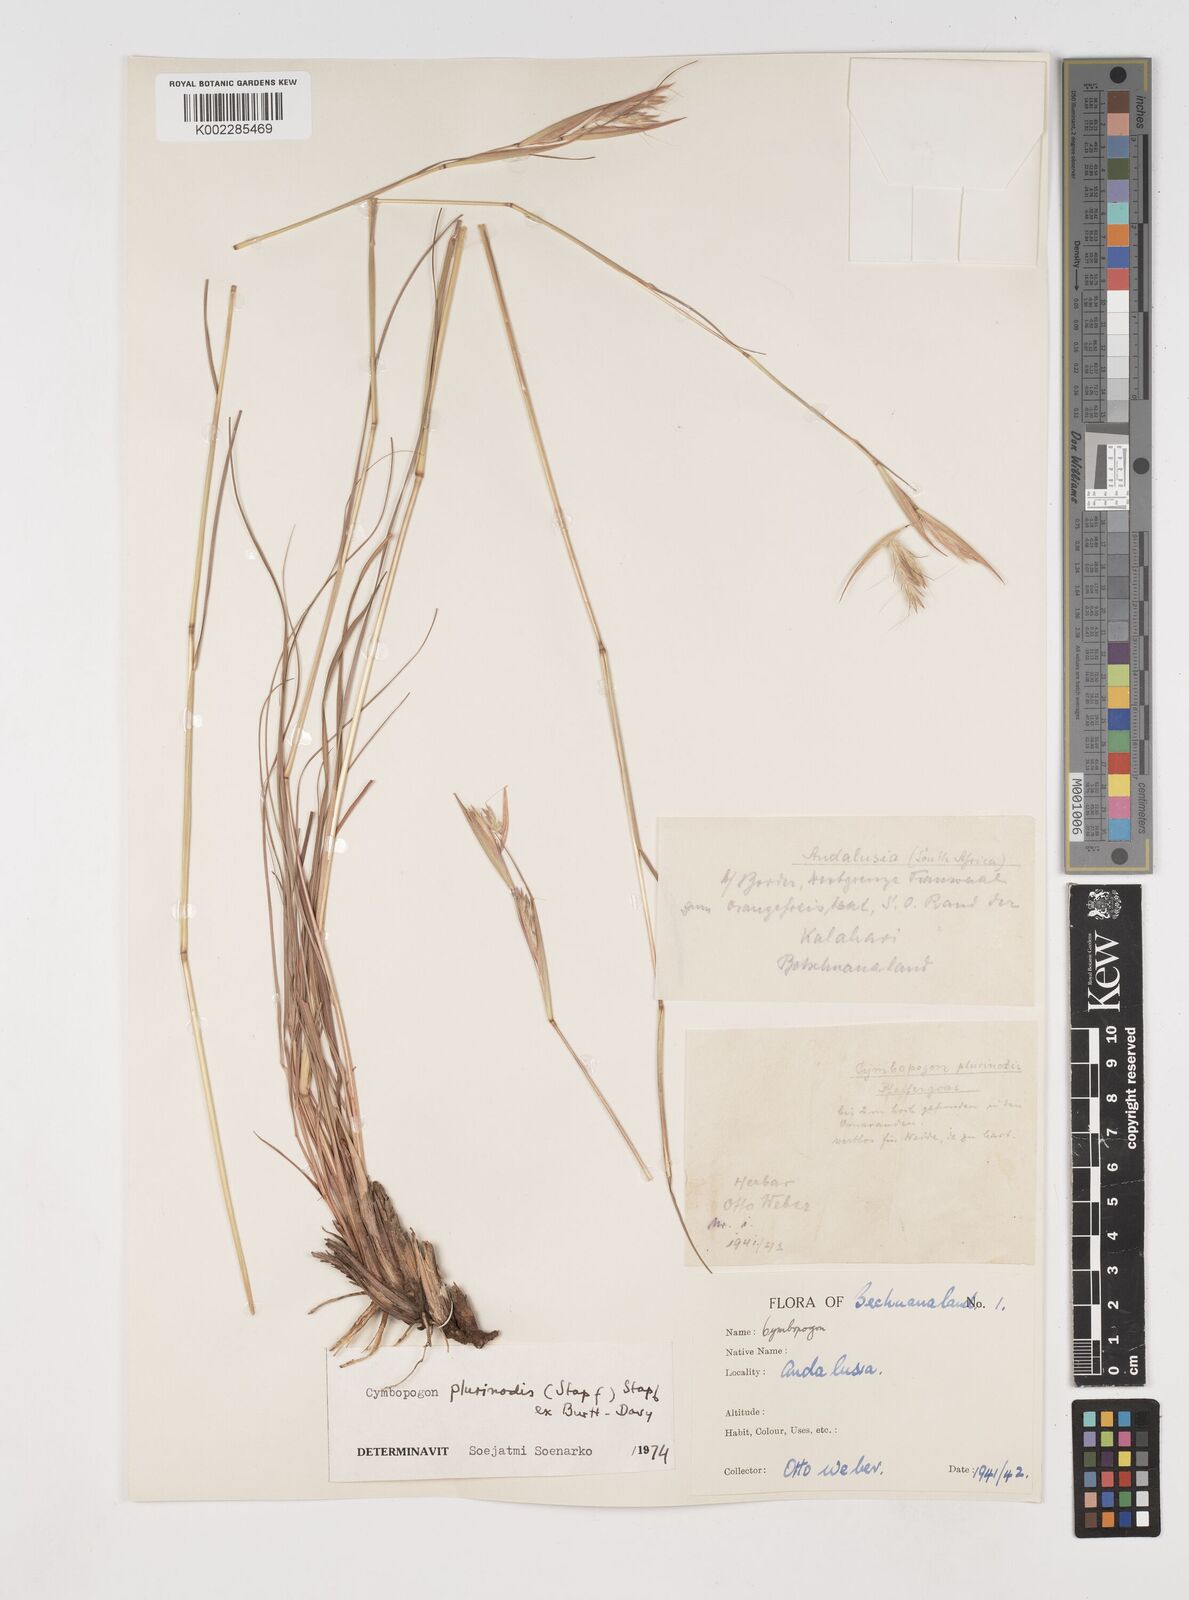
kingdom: Plantae
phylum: Tracheophyta
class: Liliopsida
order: Poales
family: Poaceae
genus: Cymbopogon
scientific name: Cymbopogon pospischilii
